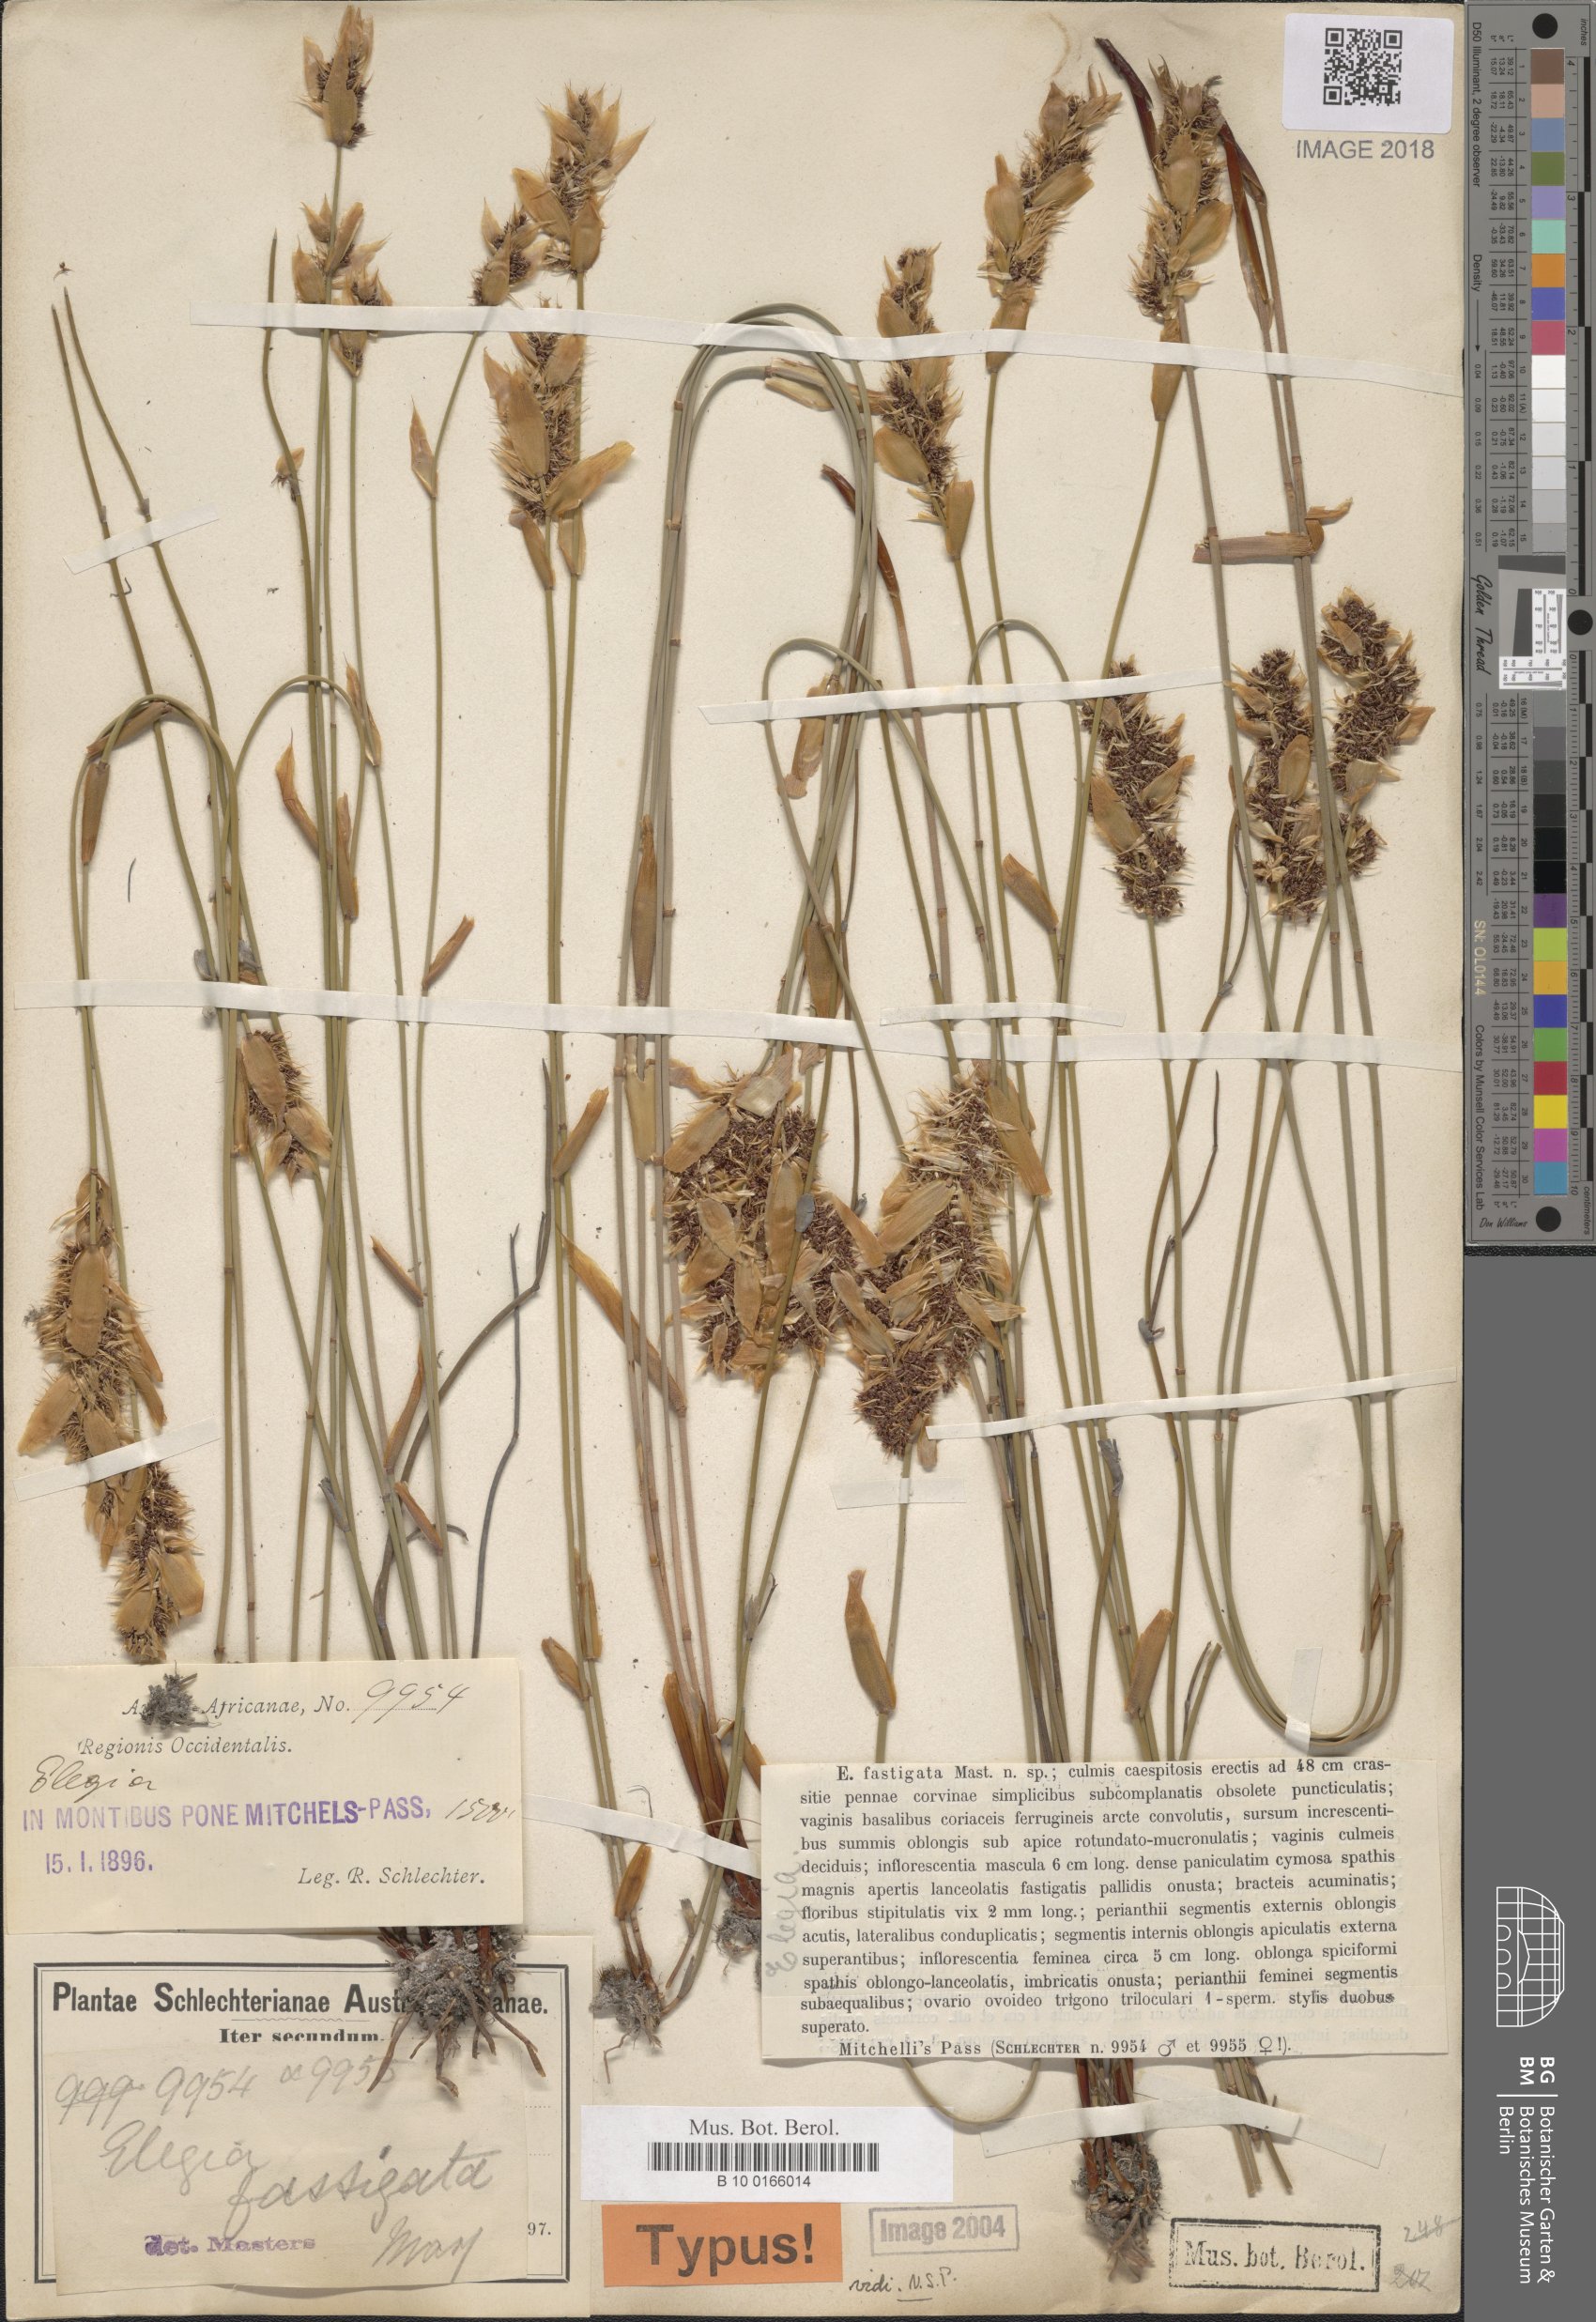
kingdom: Plantae
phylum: Tracheophyta
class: Liliopsida
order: Poales
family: Restionaceae
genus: Elegia
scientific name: Elegia fastigata
